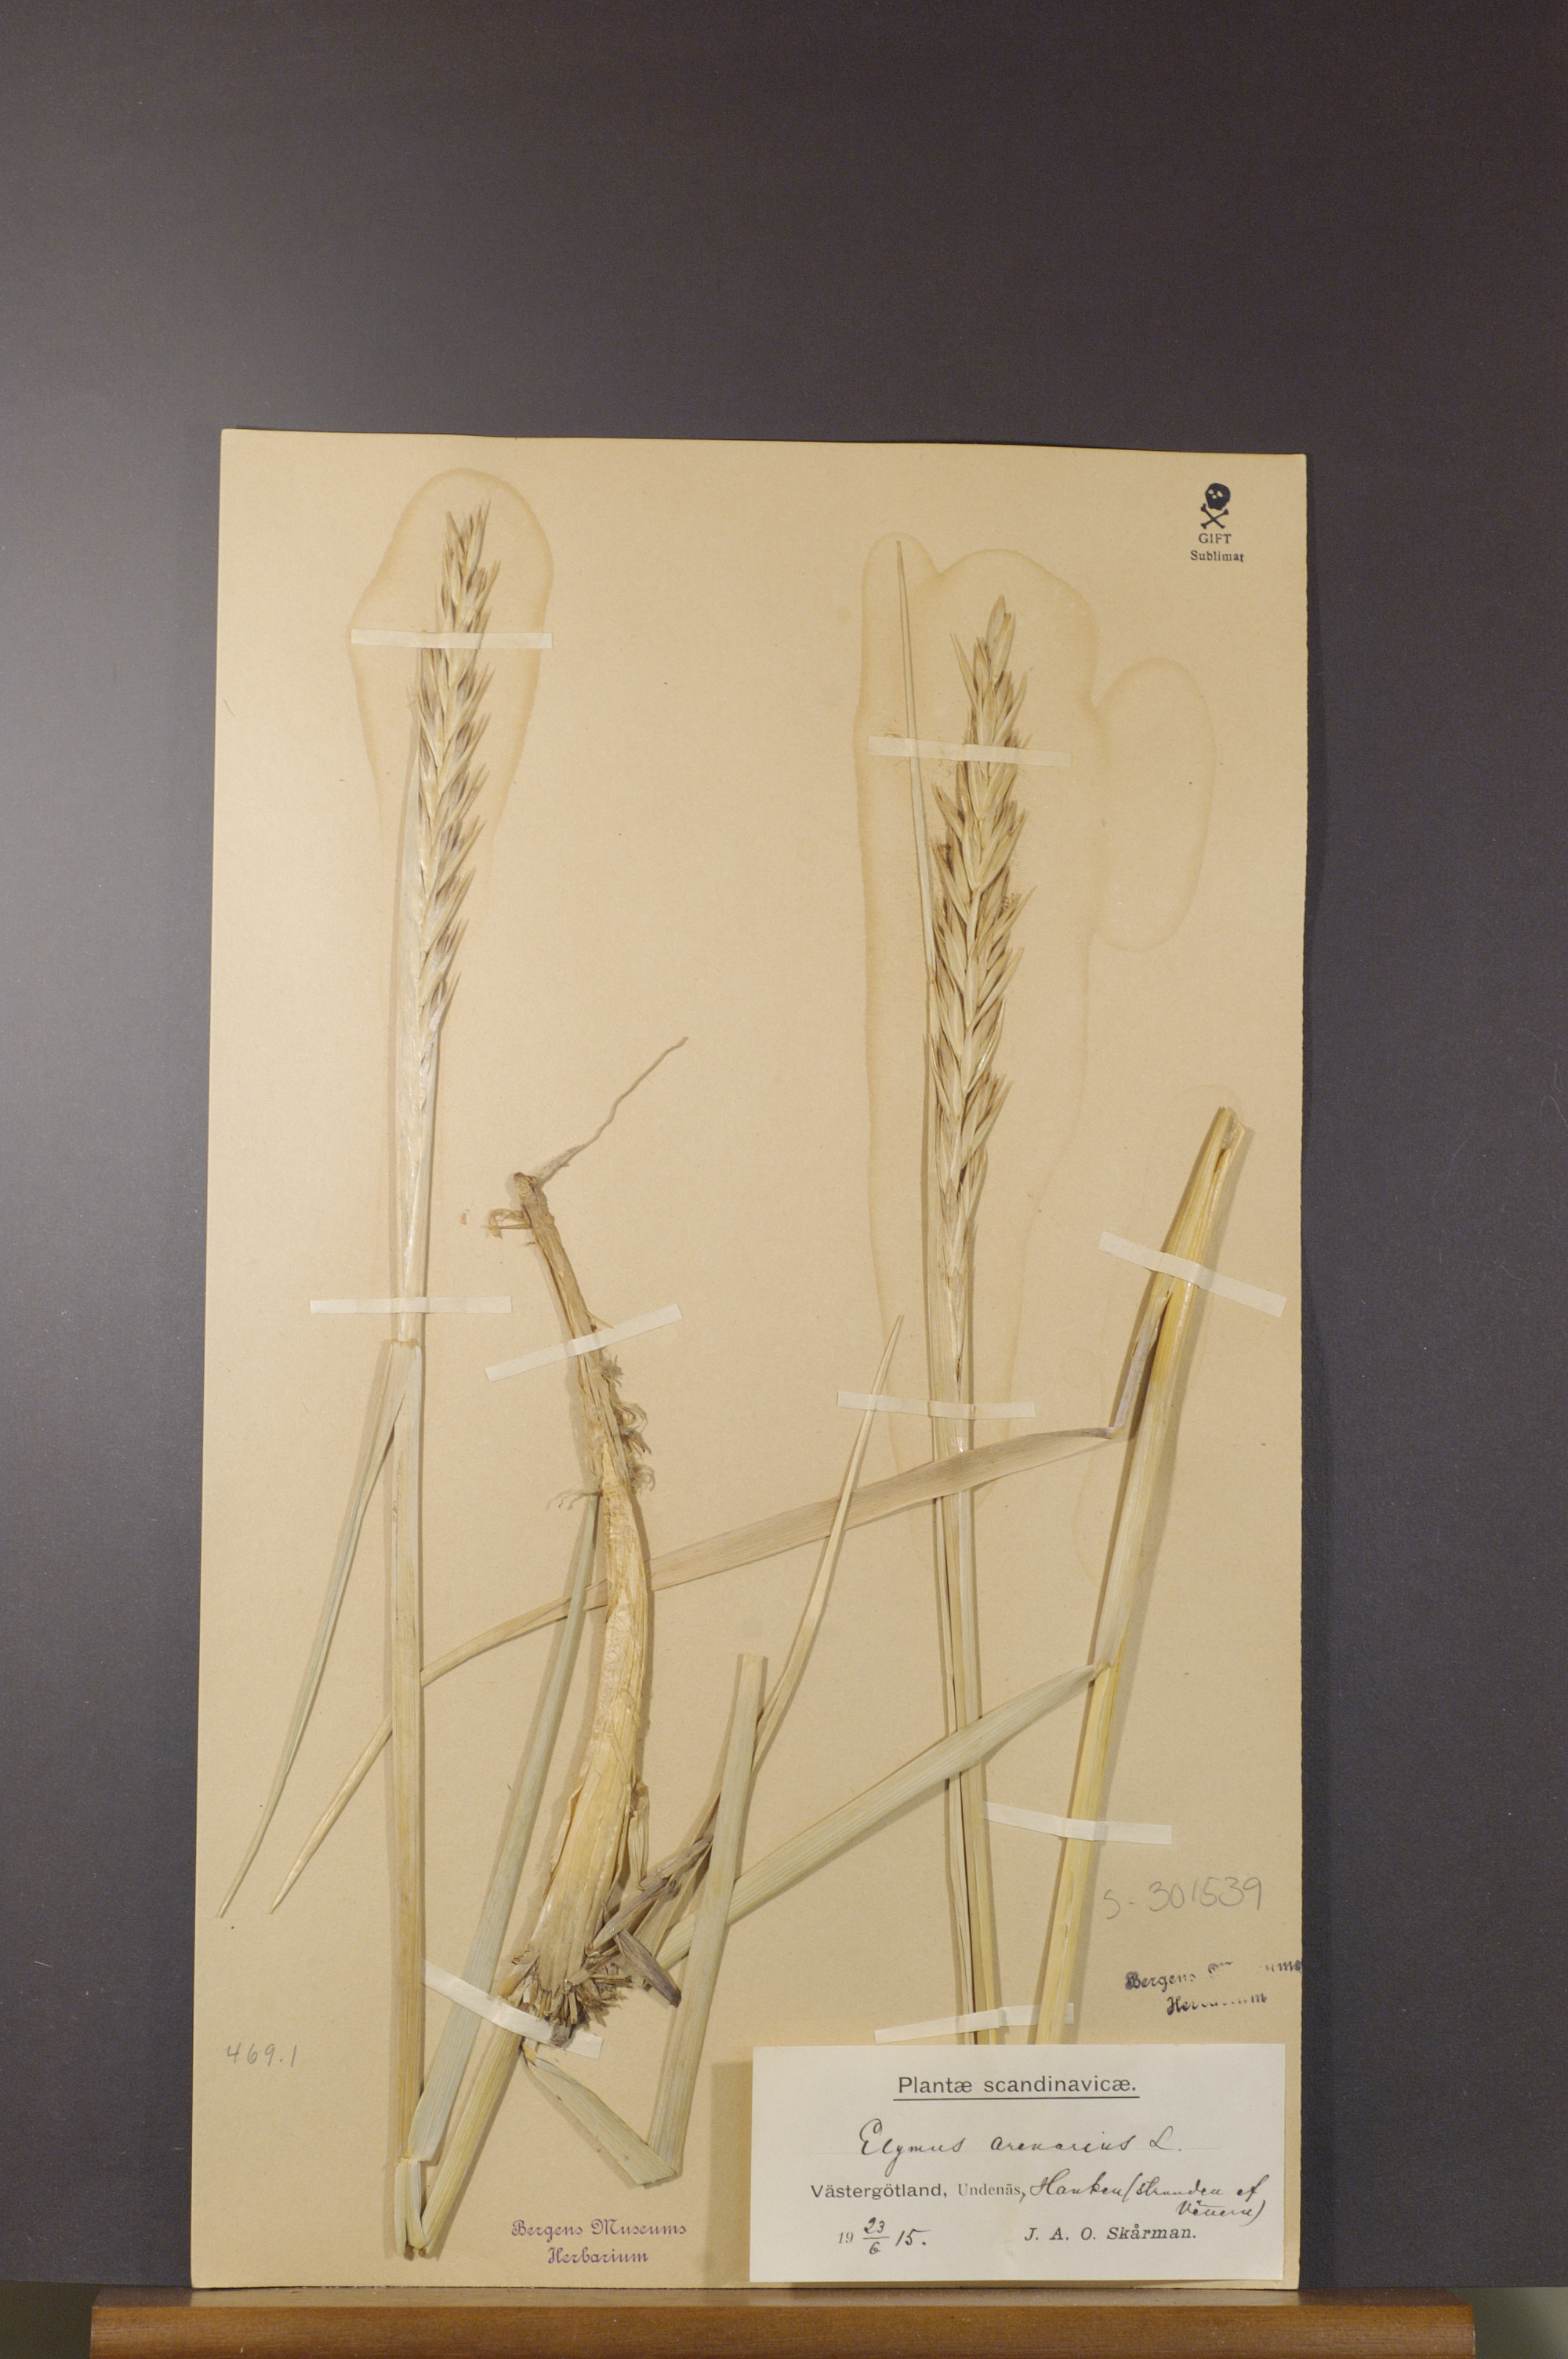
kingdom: Plantae
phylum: Tracheophyta
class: Liliopsida
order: Poales
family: Poaceae
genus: Leymus
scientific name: Leymus arenarius
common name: Lyme-grass
